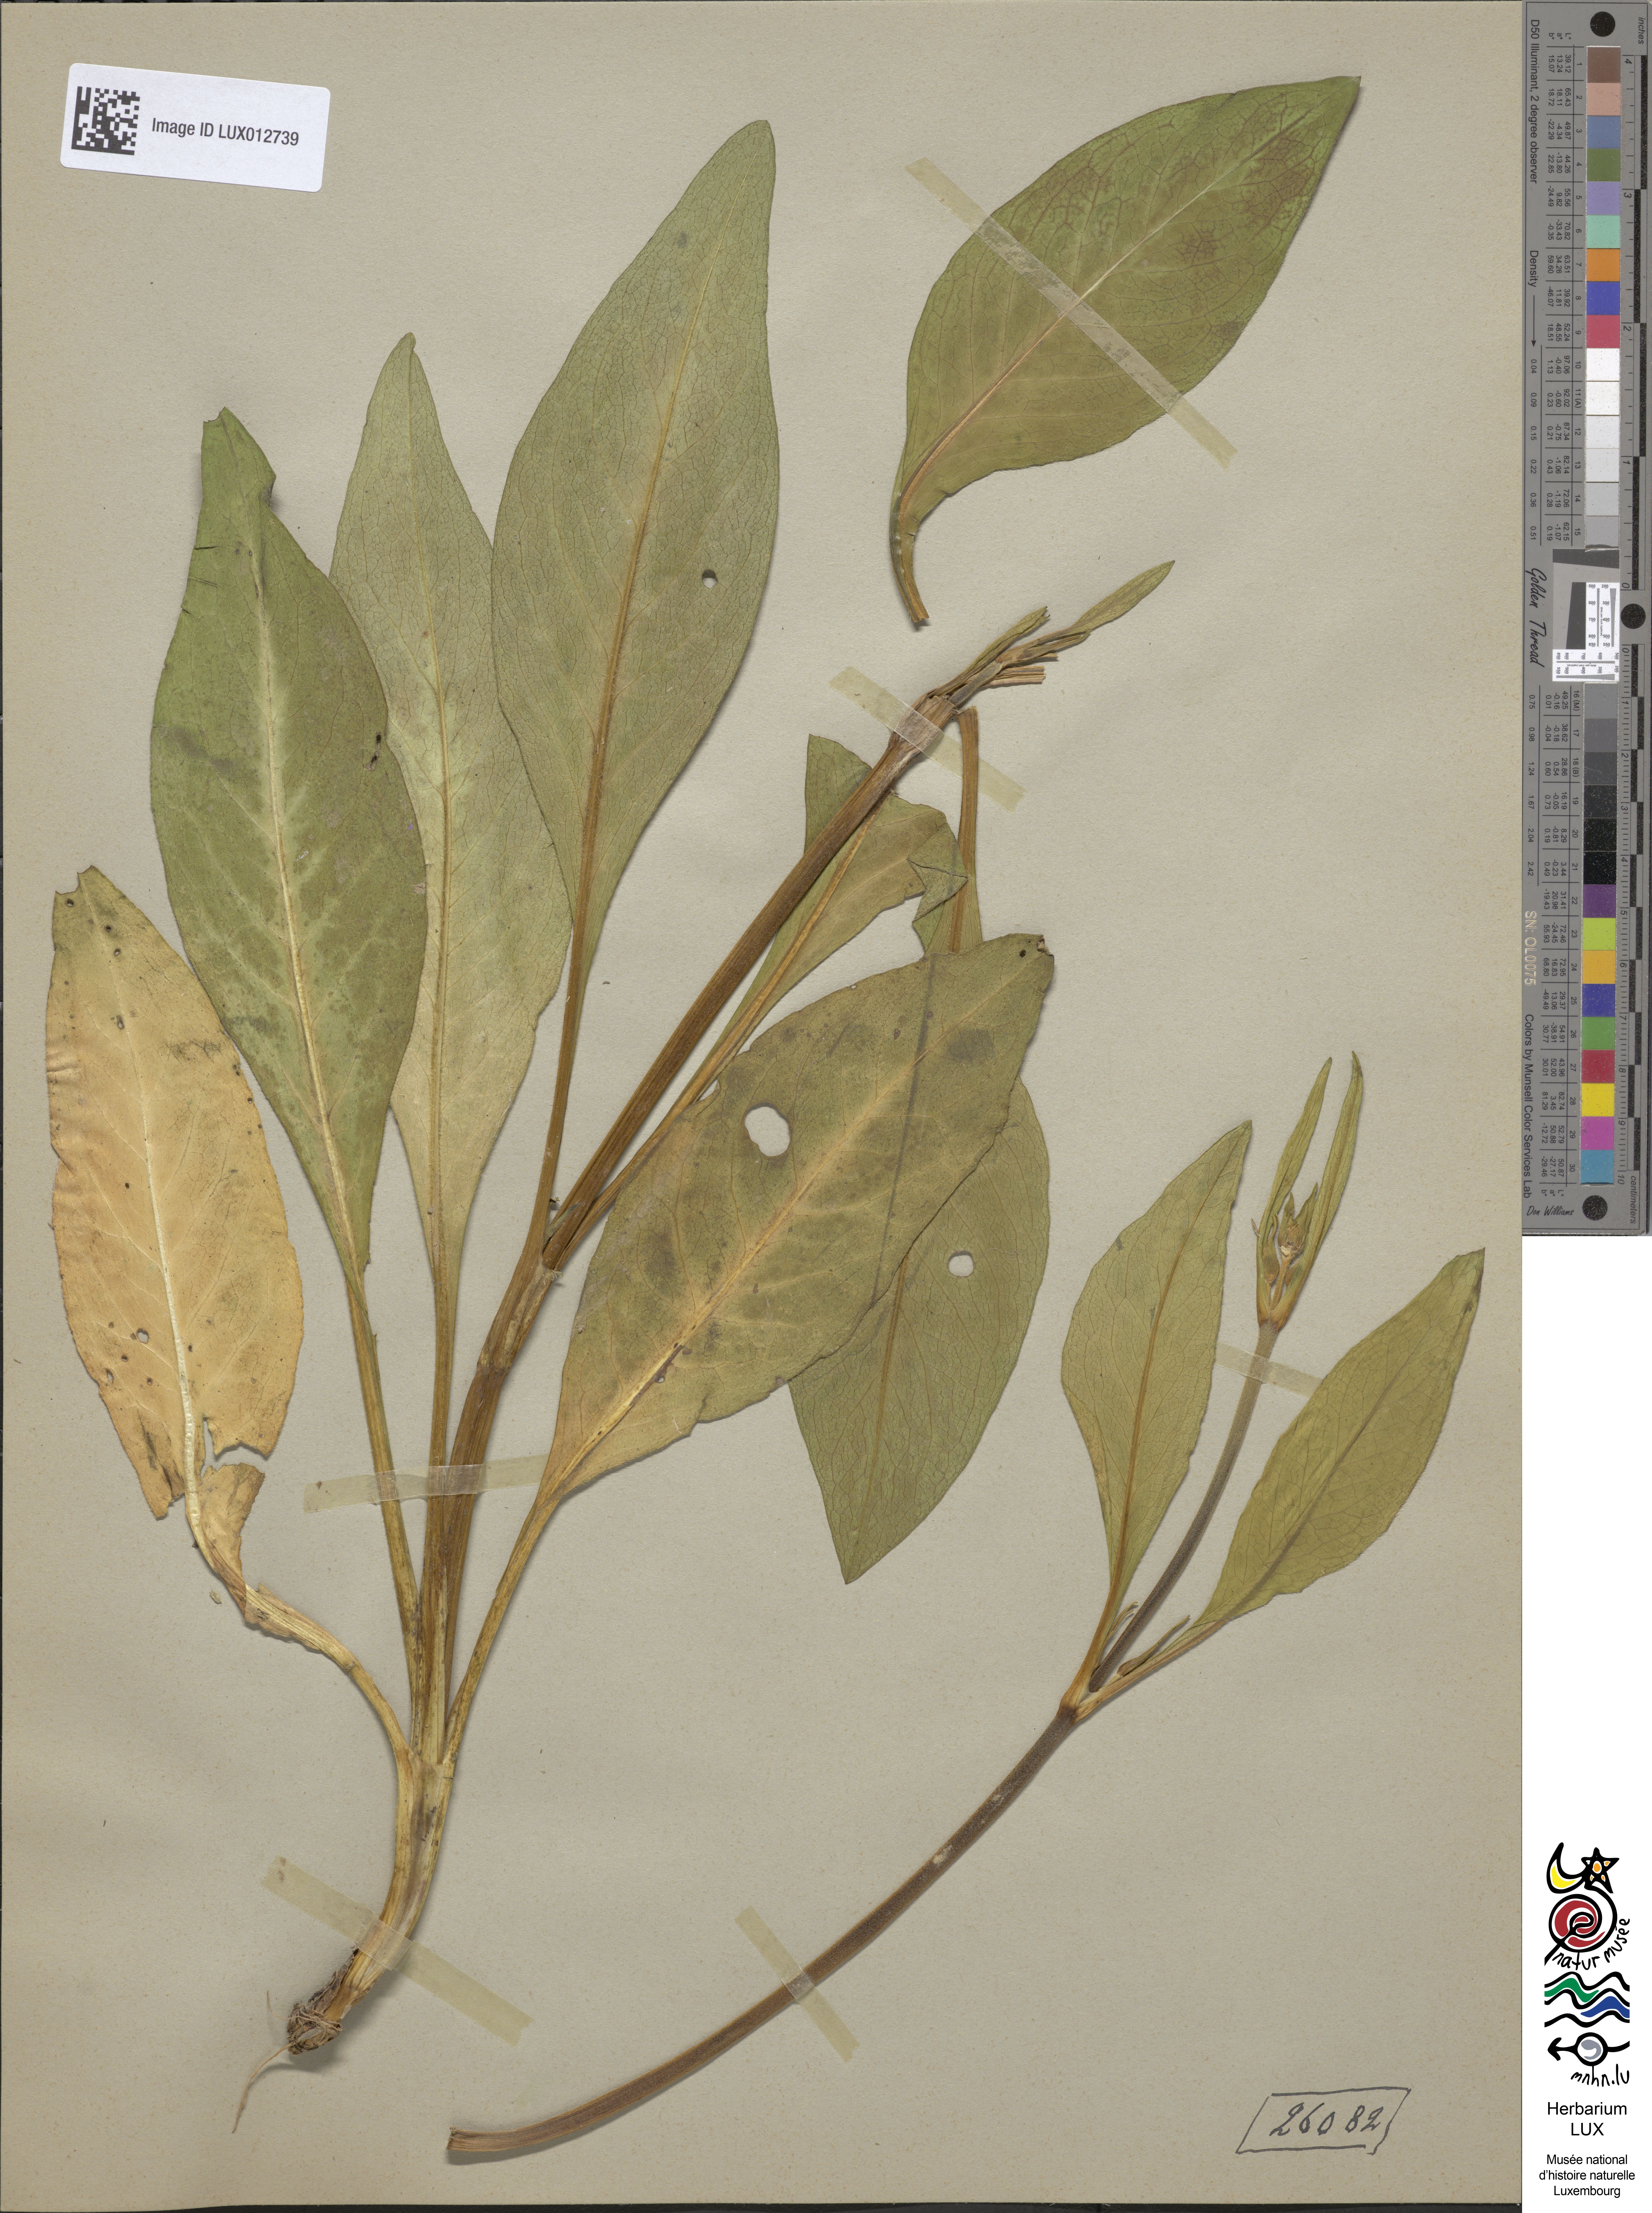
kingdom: Plantae
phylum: Tracheophyta
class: Magnoliopsida
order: Dipsacales
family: Caprifoliaceae
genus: Succisa
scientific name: Succisa pratensis
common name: Devil's-bit
